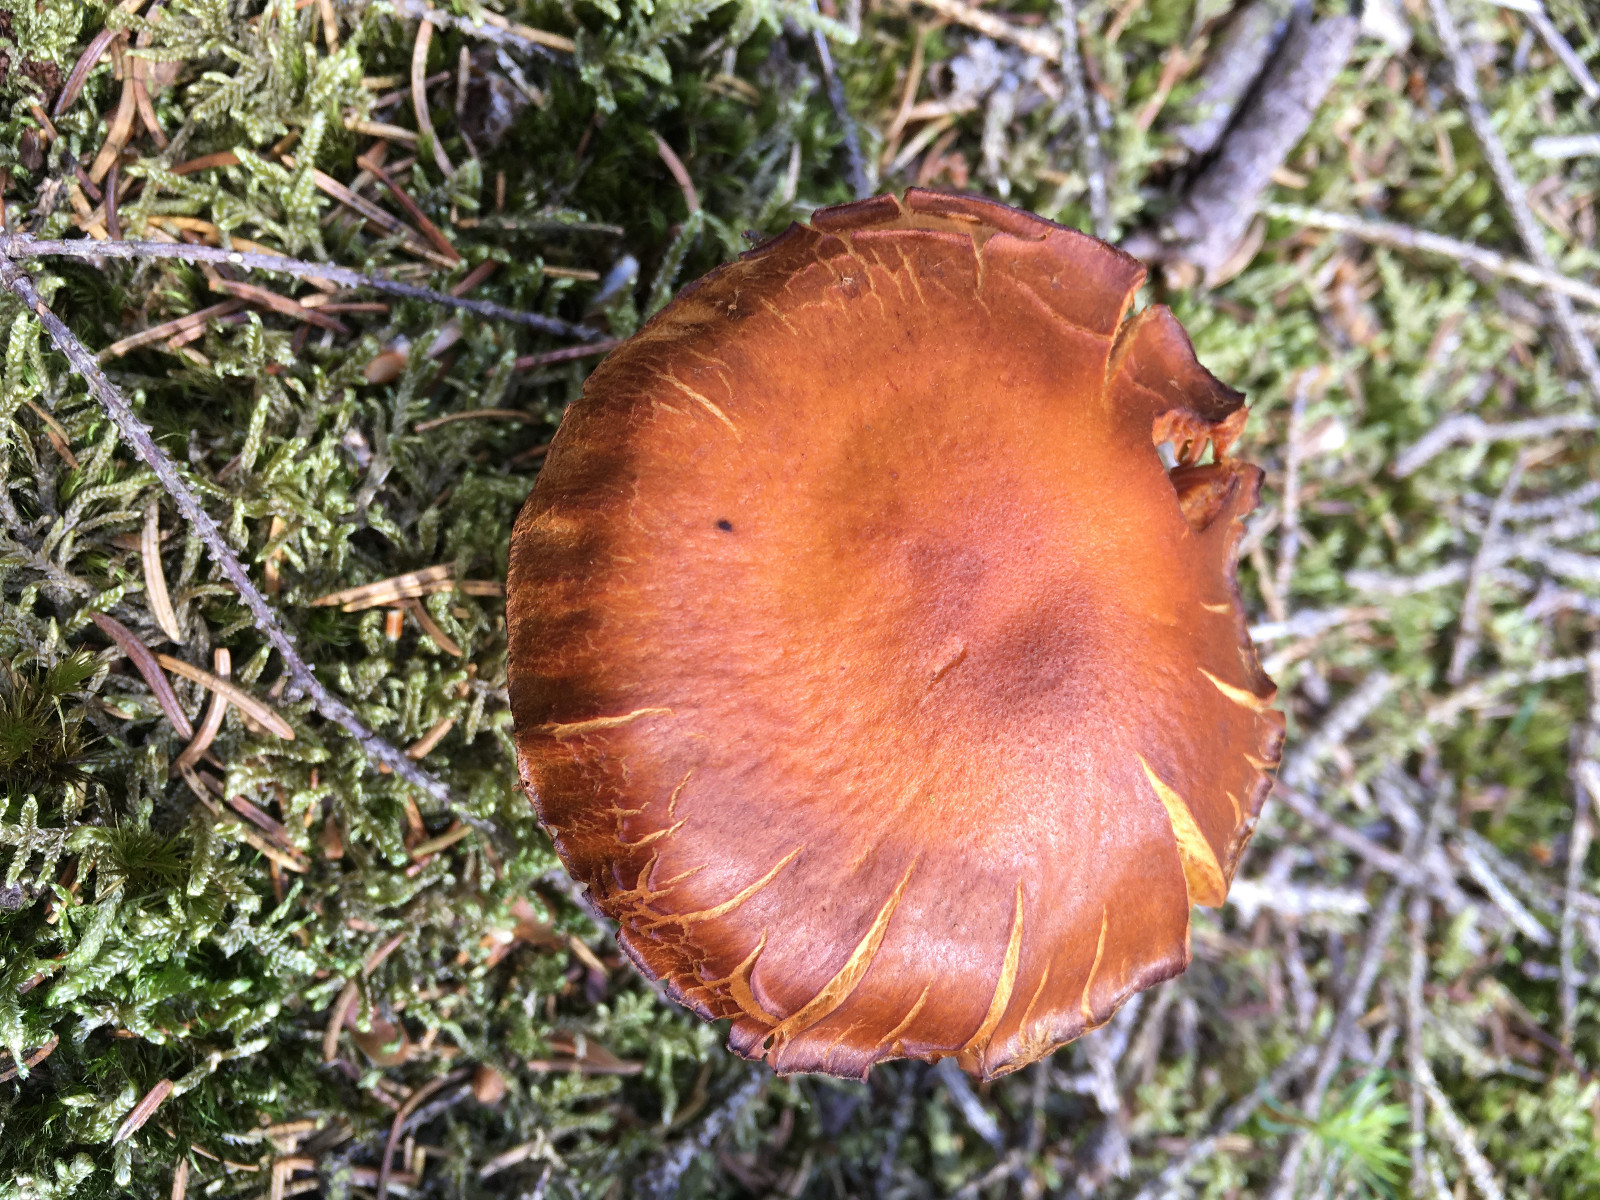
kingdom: Fungi
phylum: Basidiomycota
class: Agaricomycetes
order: Agaricales
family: Cortinariaceae
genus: Aureonarius
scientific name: Aureonarius limonius
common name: orangegul slørhat
